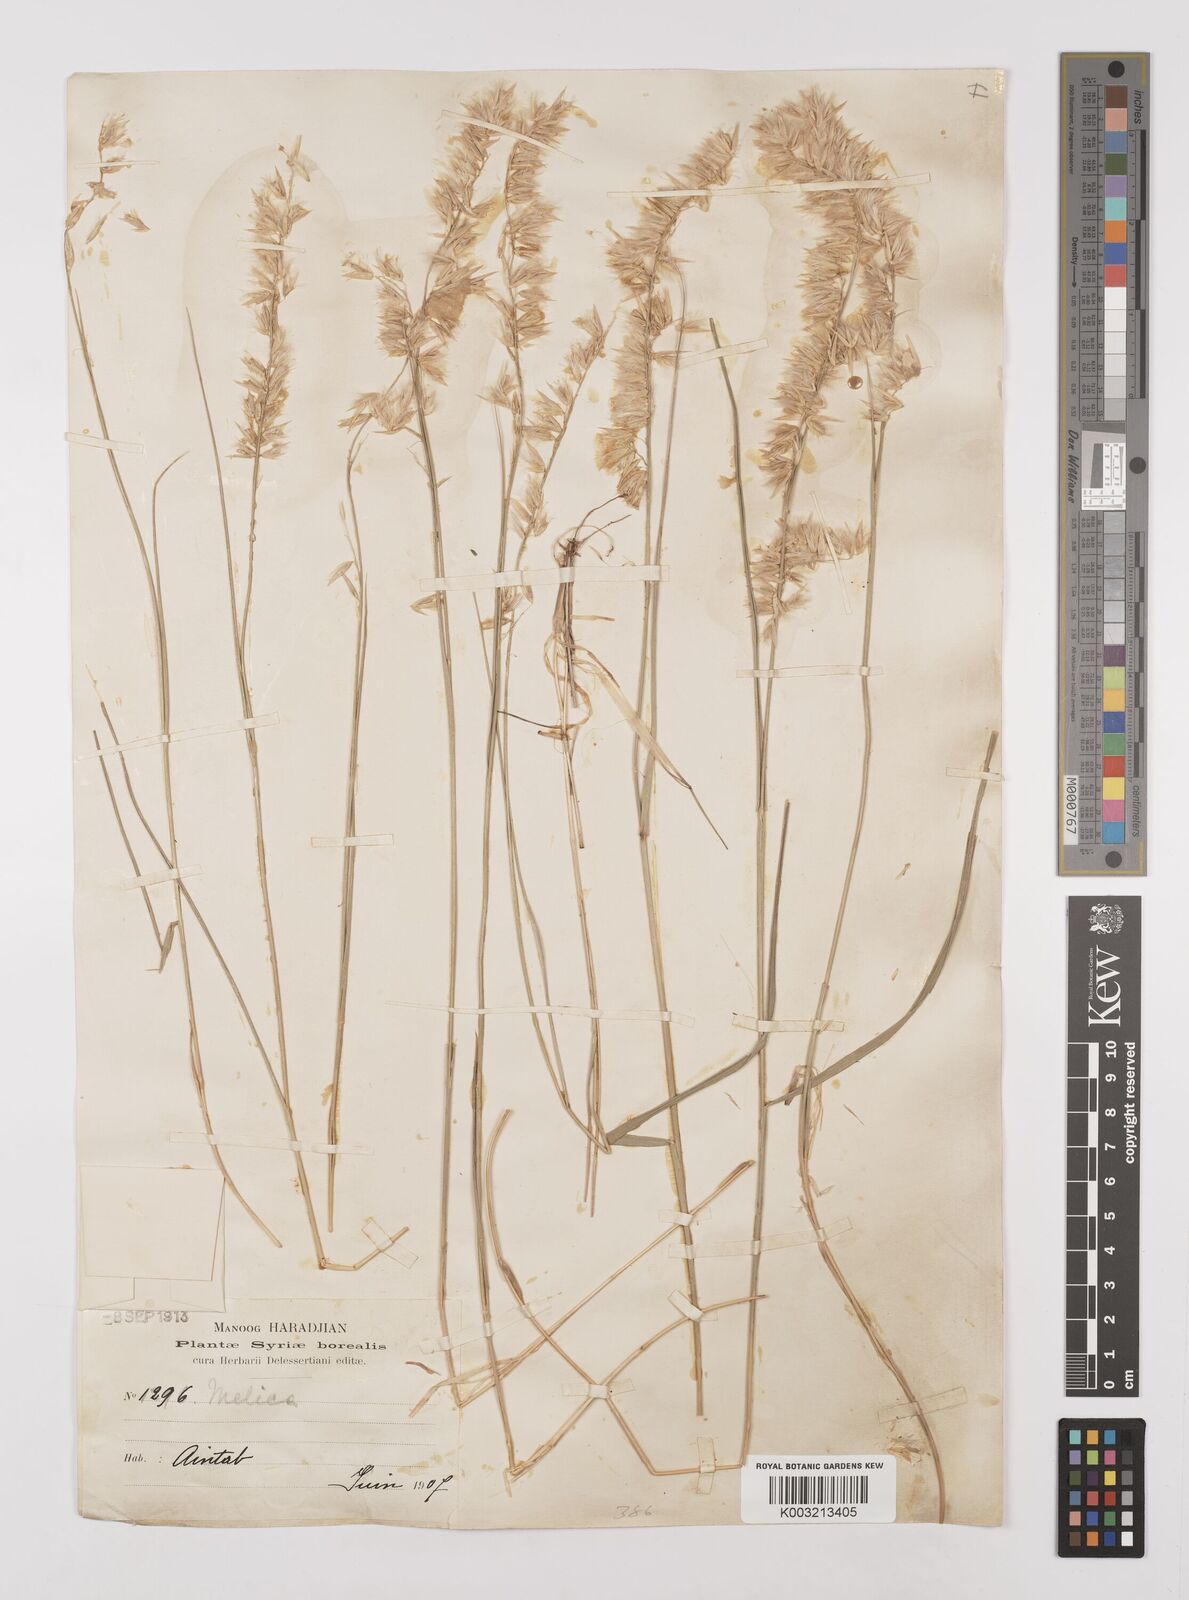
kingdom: Plantae
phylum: Tracheophyta
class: Liliopsida
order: Poales
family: Poaceae
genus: Melica
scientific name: Melica persica
